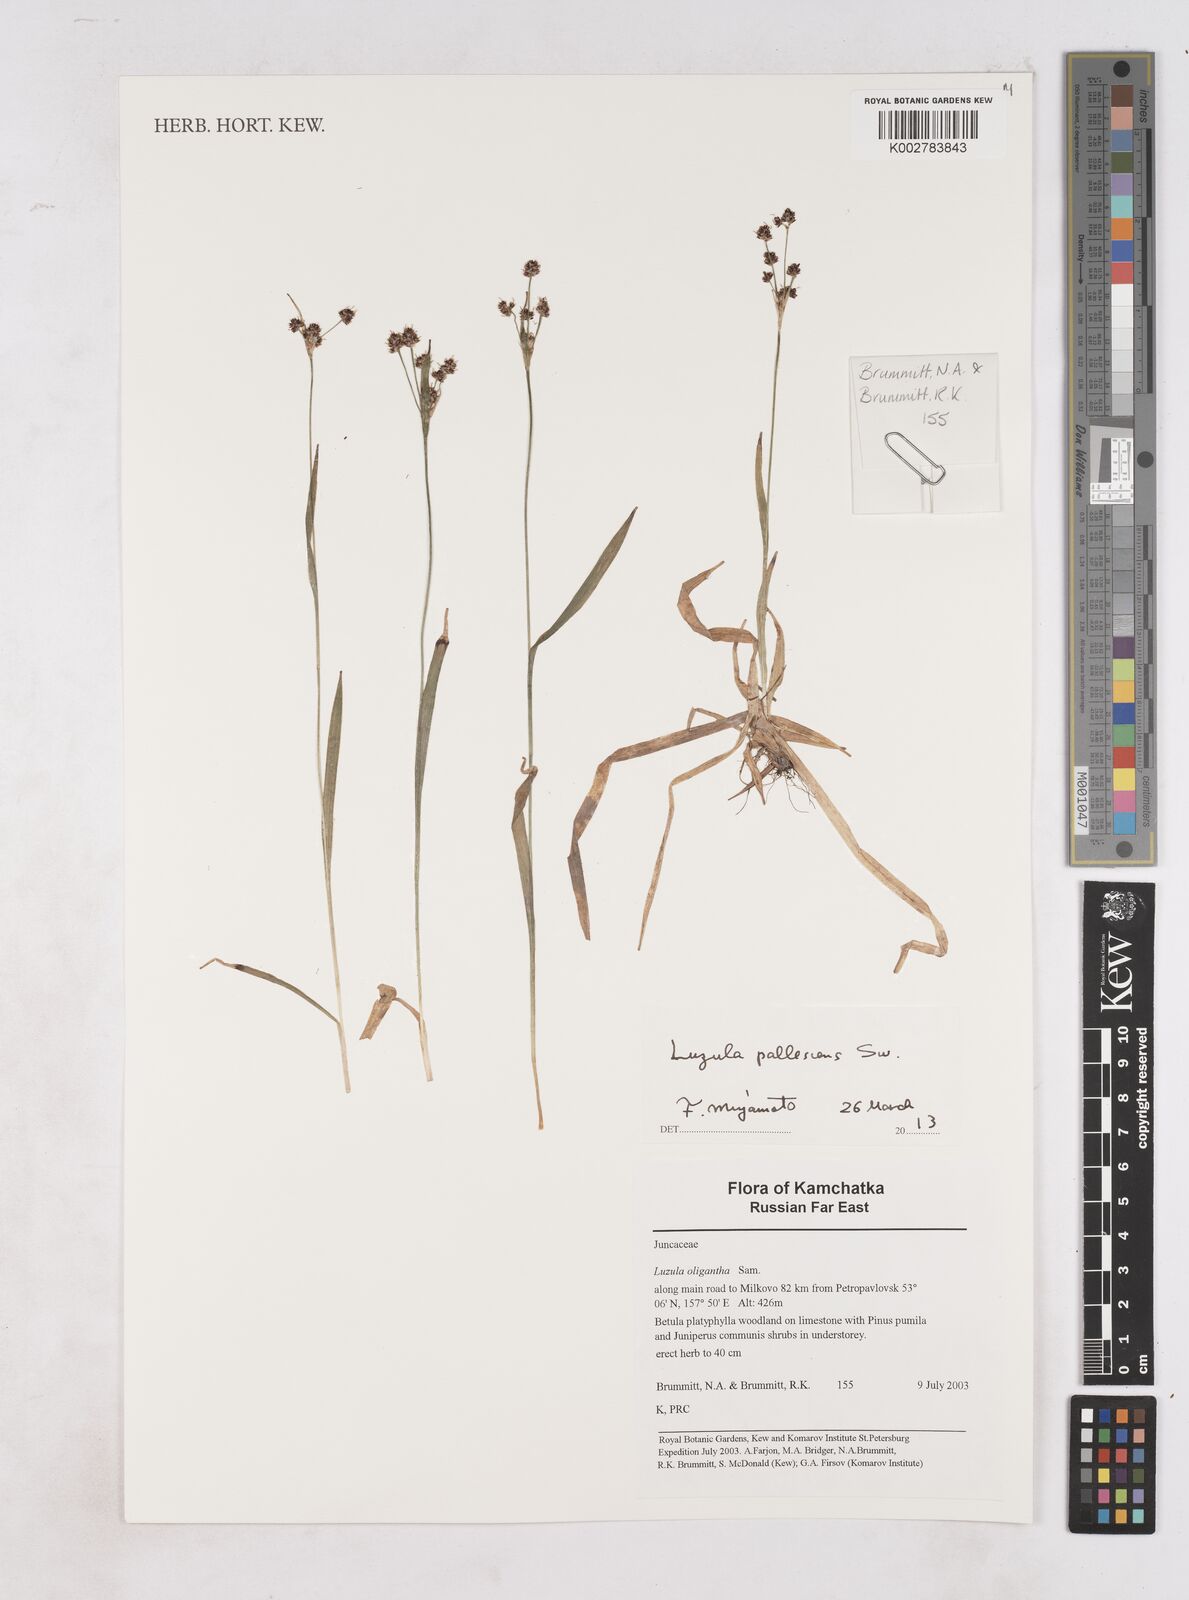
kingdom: Plantae
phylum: Tracheophyta
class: Liliopsida
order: Poales
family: Juncaceae
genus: Luzula
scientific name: Luzula oligantha
